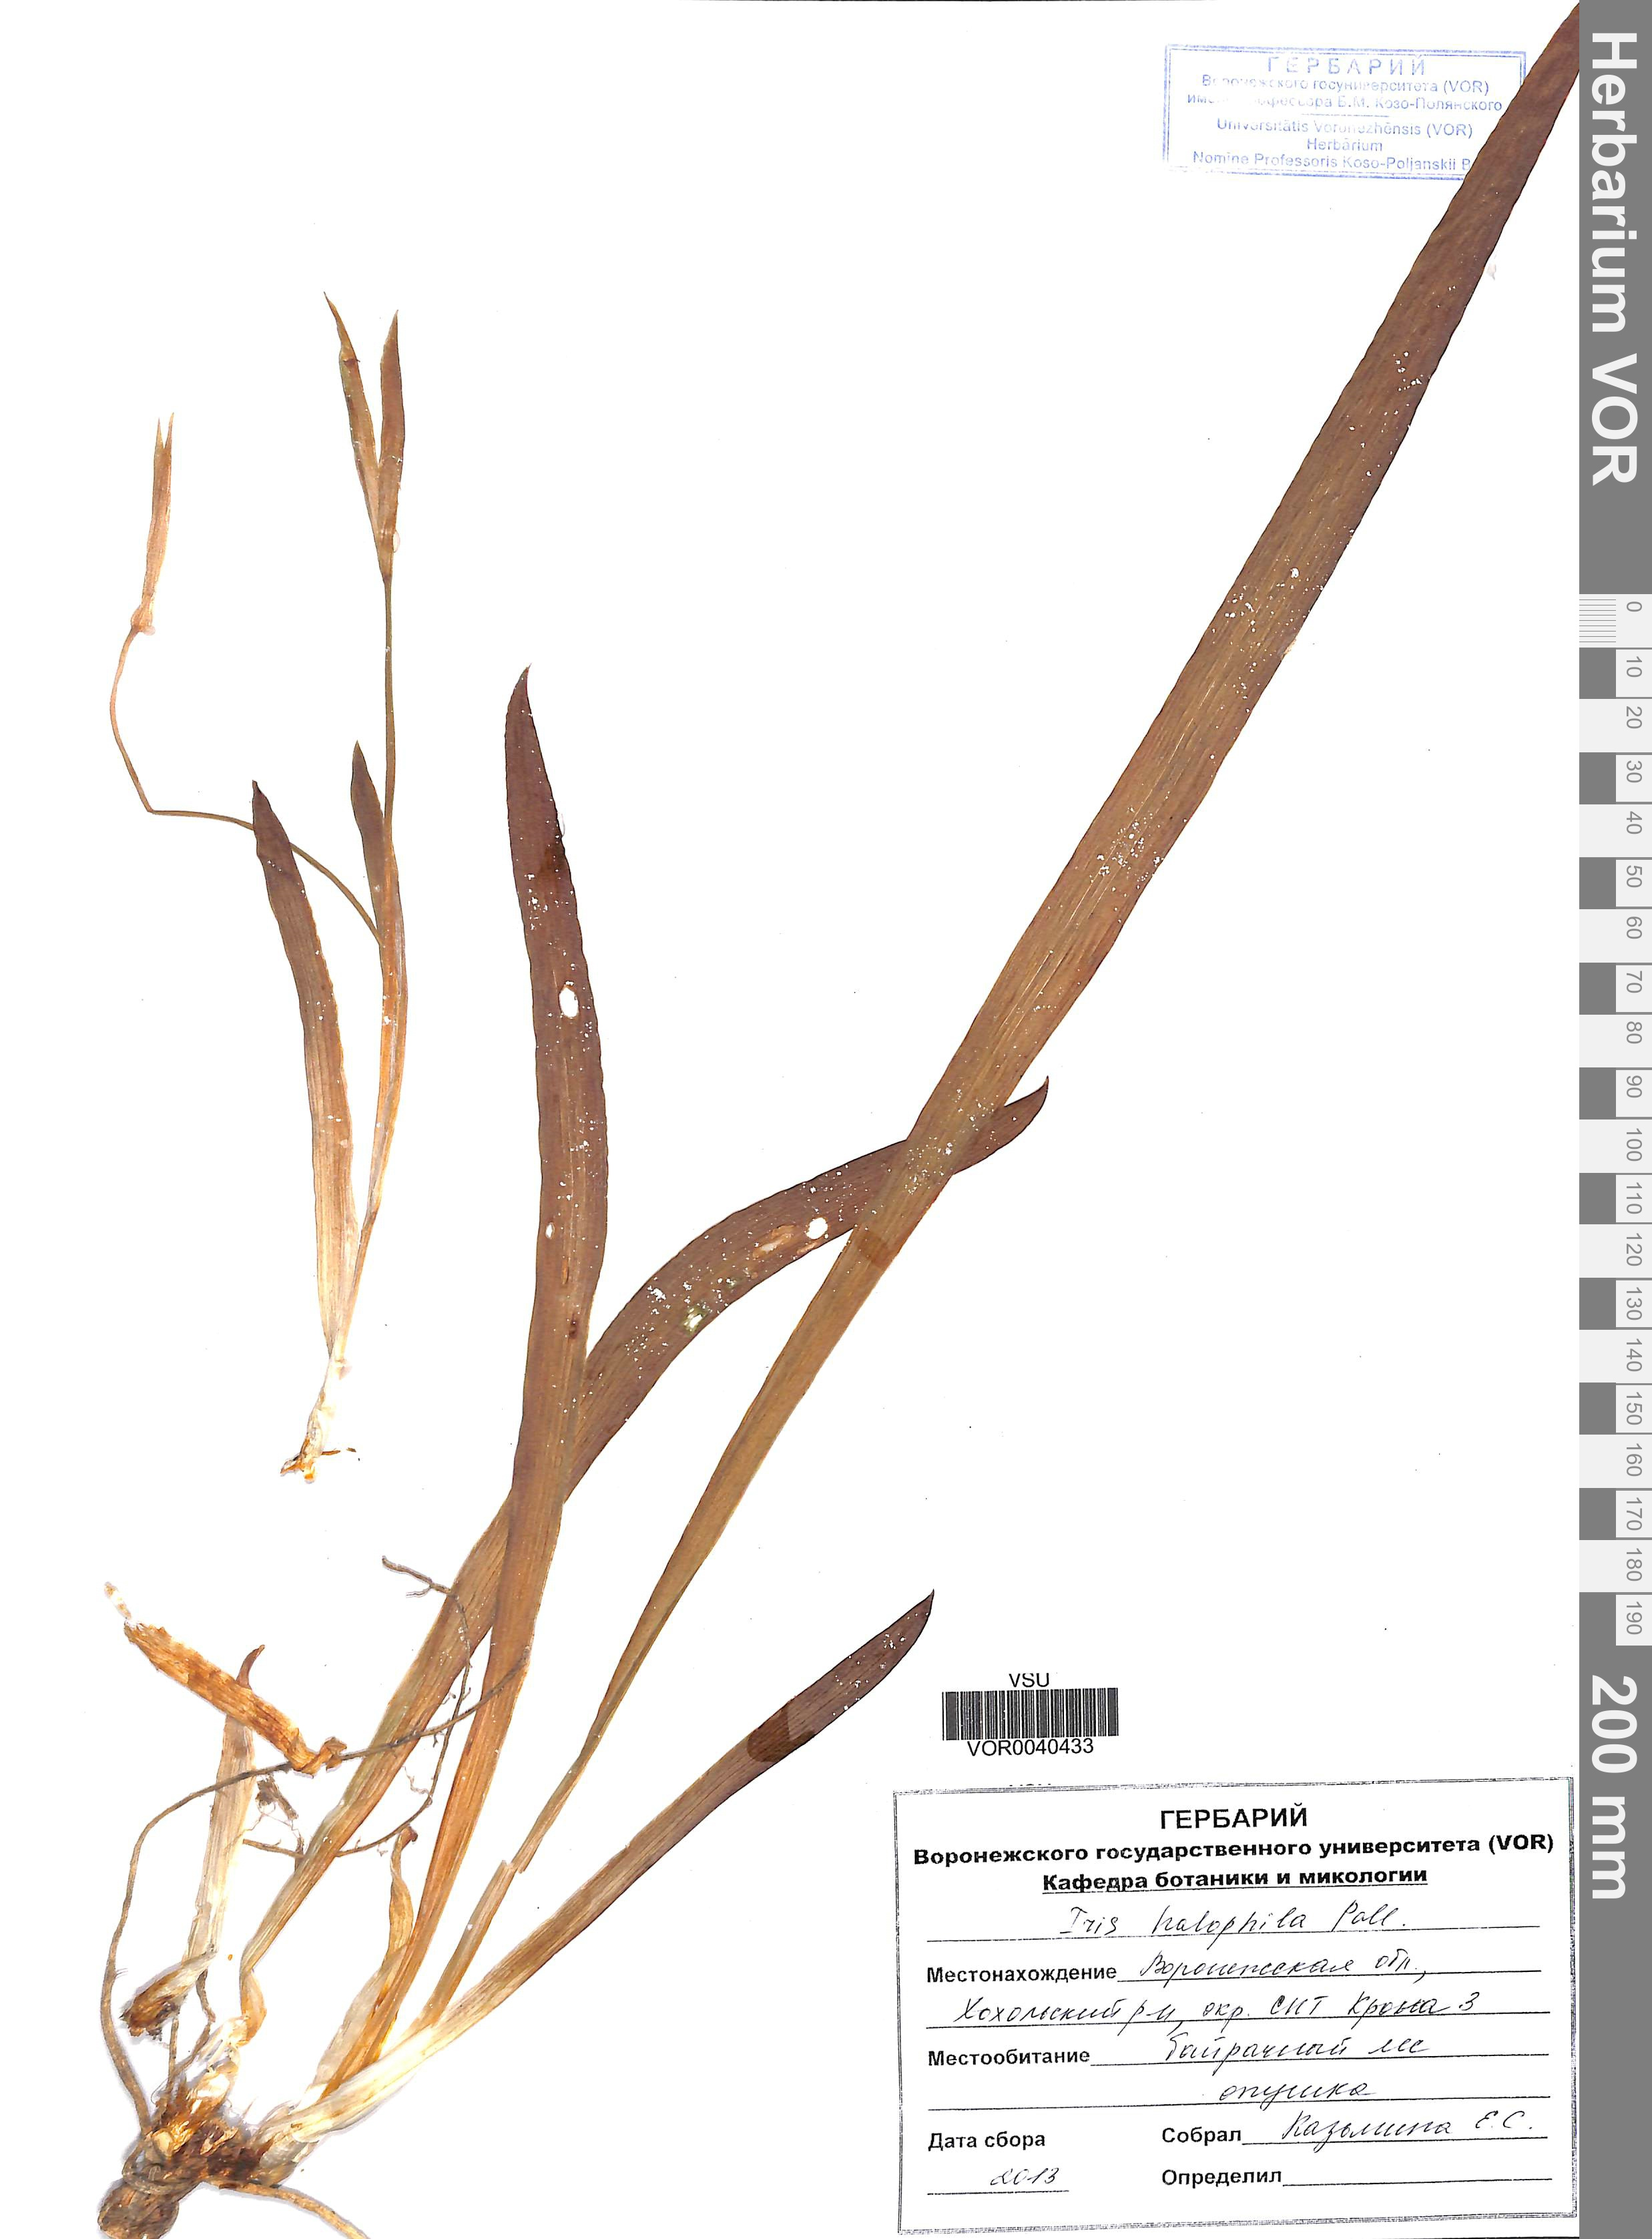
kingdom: Plantae
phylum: Tracheophyta
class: Liliopsida
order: Asparagales
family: Iridaceae
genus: Iris
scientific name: Iris halophila
